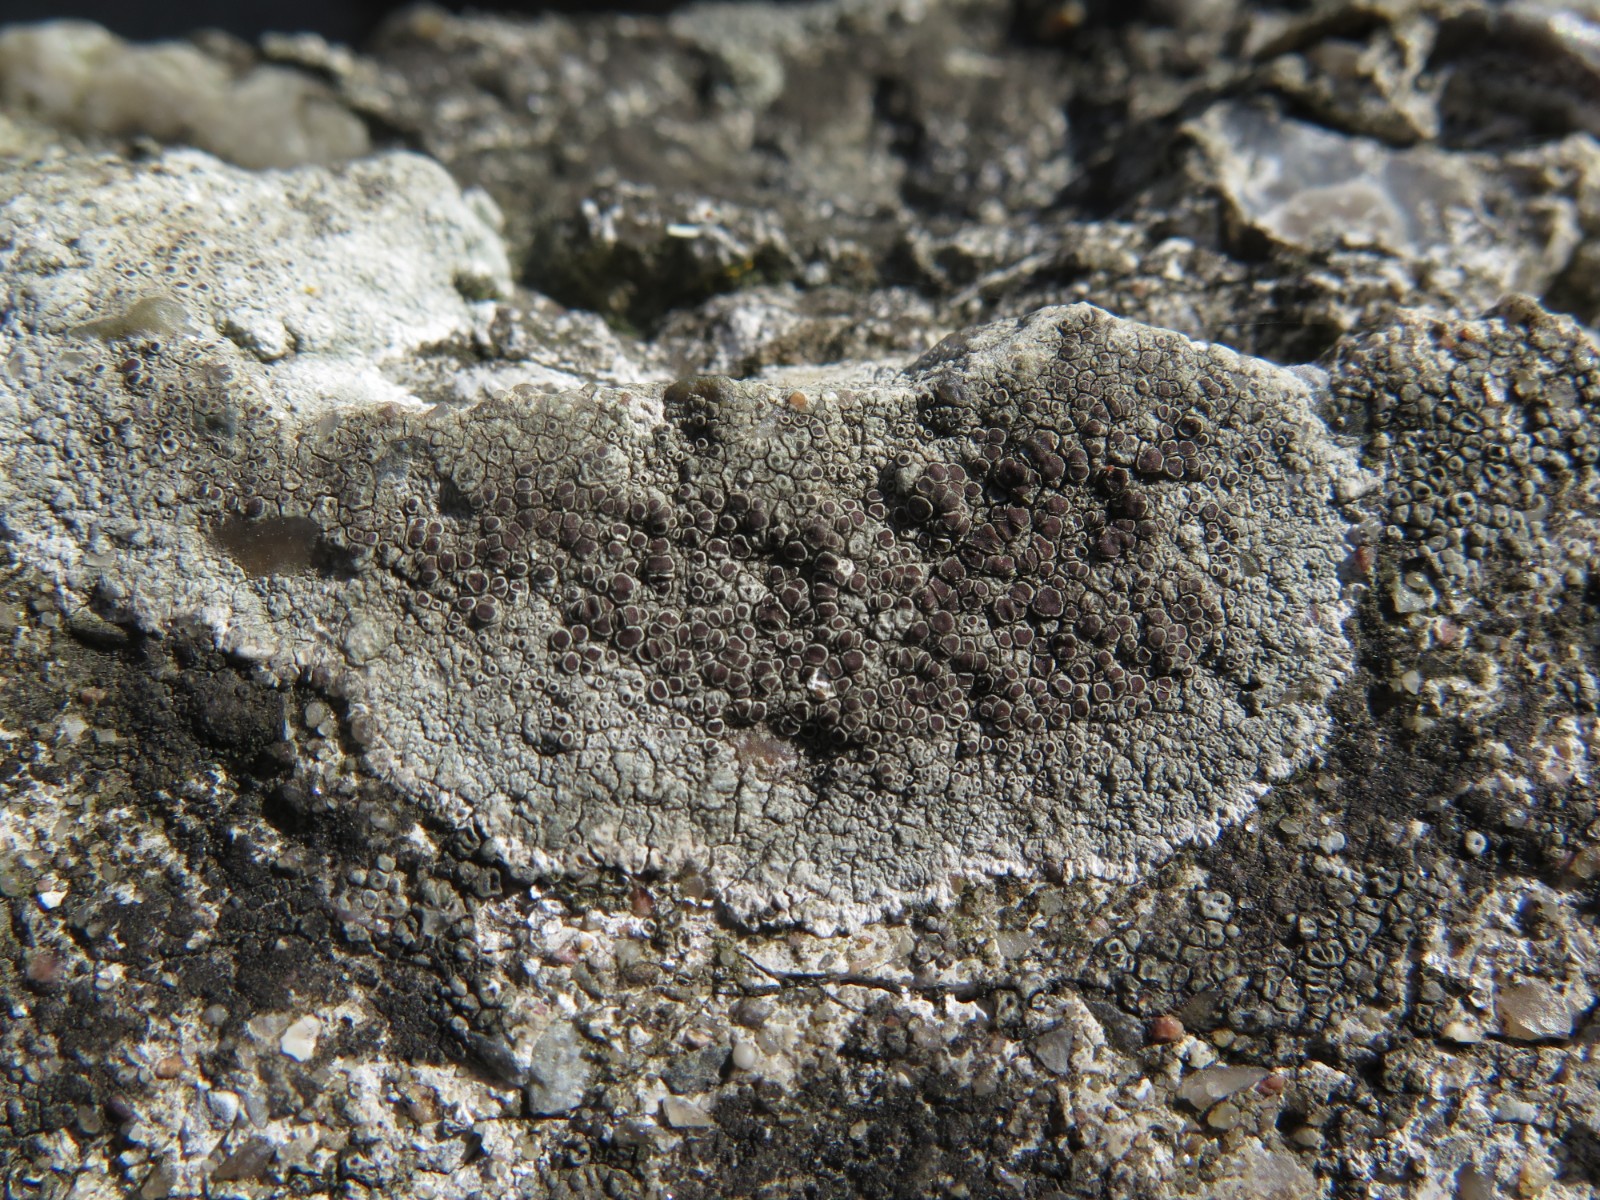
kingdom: Fungi
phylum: Ascomycota
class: Lecanoromycetes
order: Lecanorales
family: Lecanoraceae
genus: Lecanora
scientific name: Lecanora campestris
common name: mur-kantskivelav
